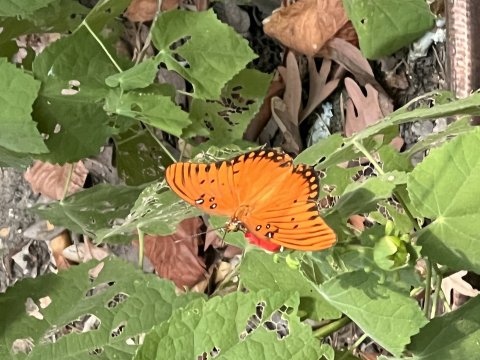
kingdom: Animalia
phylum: Arthropoda
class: Insecta
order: Lepidoptera
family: Nymphalidae
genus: Dione
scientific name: Dione vanillae
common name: Gulf Fritillary
